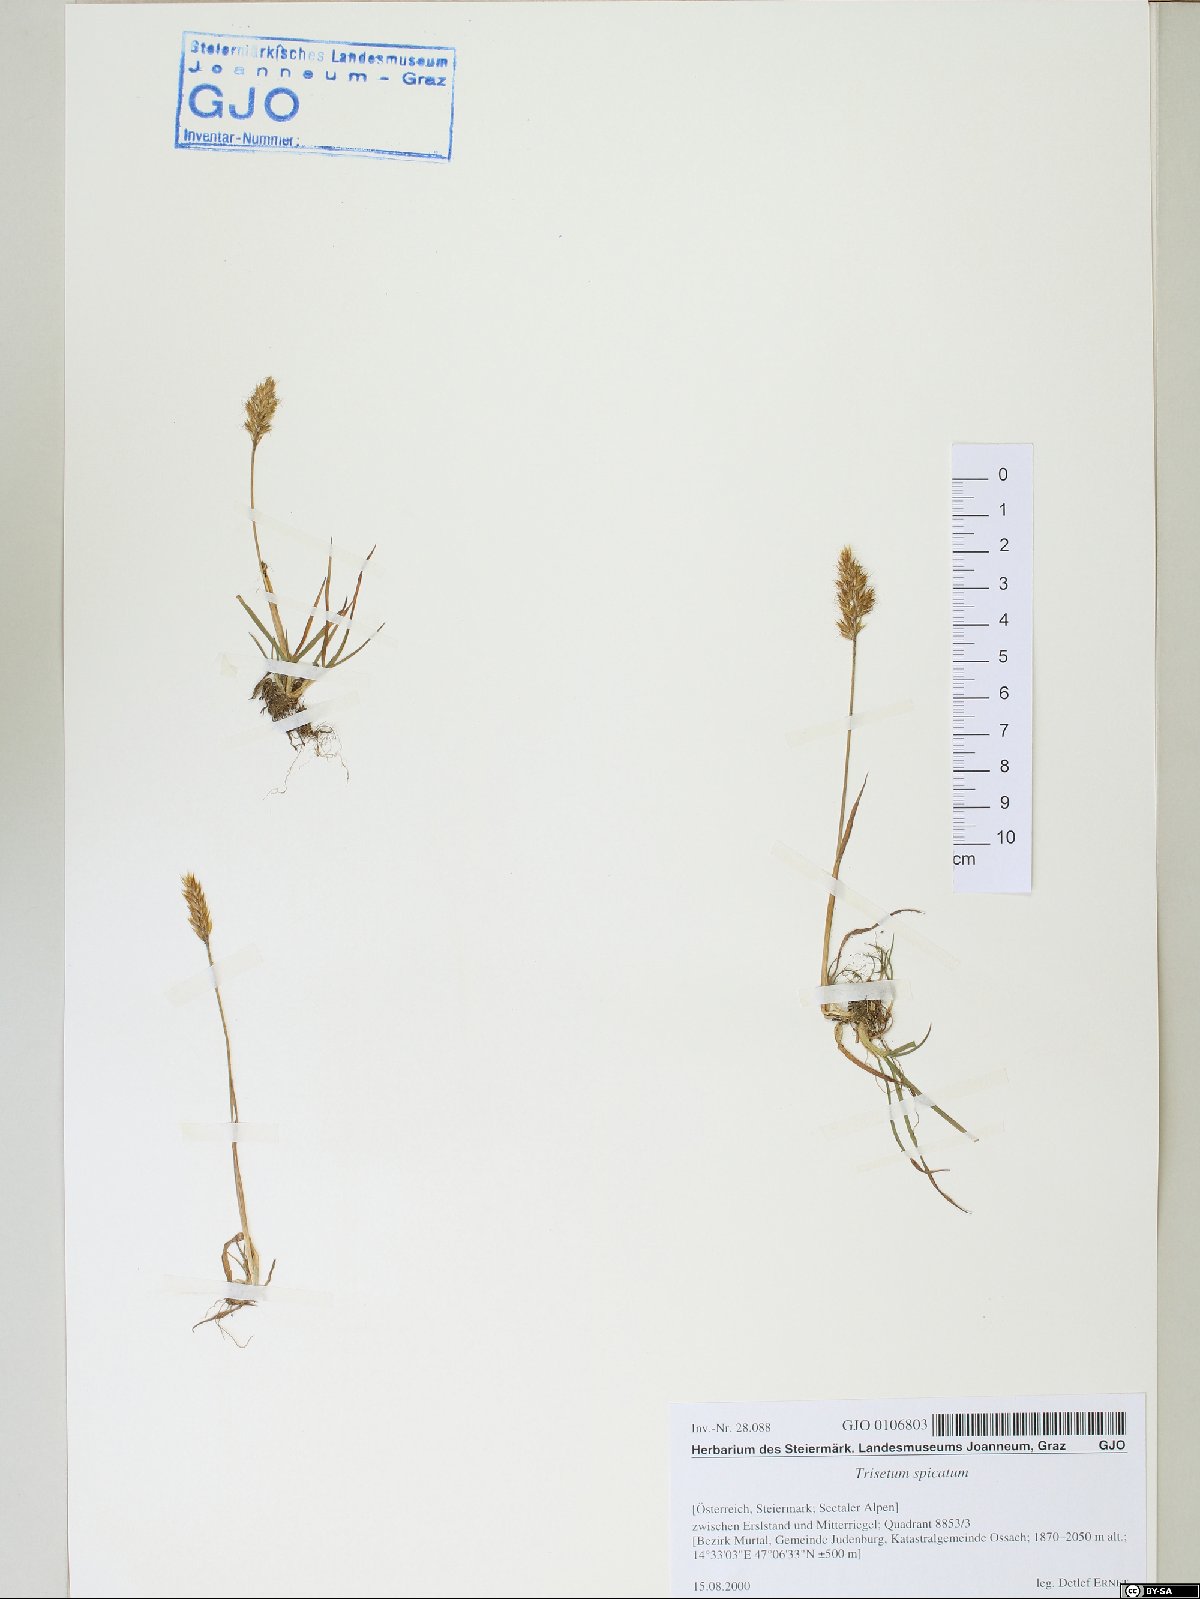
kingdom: Plantae
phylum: Tracheophyta
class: Liliopsida
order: Poales
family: Poaceae
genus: Koeleria
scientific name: Koeleria spicata
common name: Mountain trisetum
